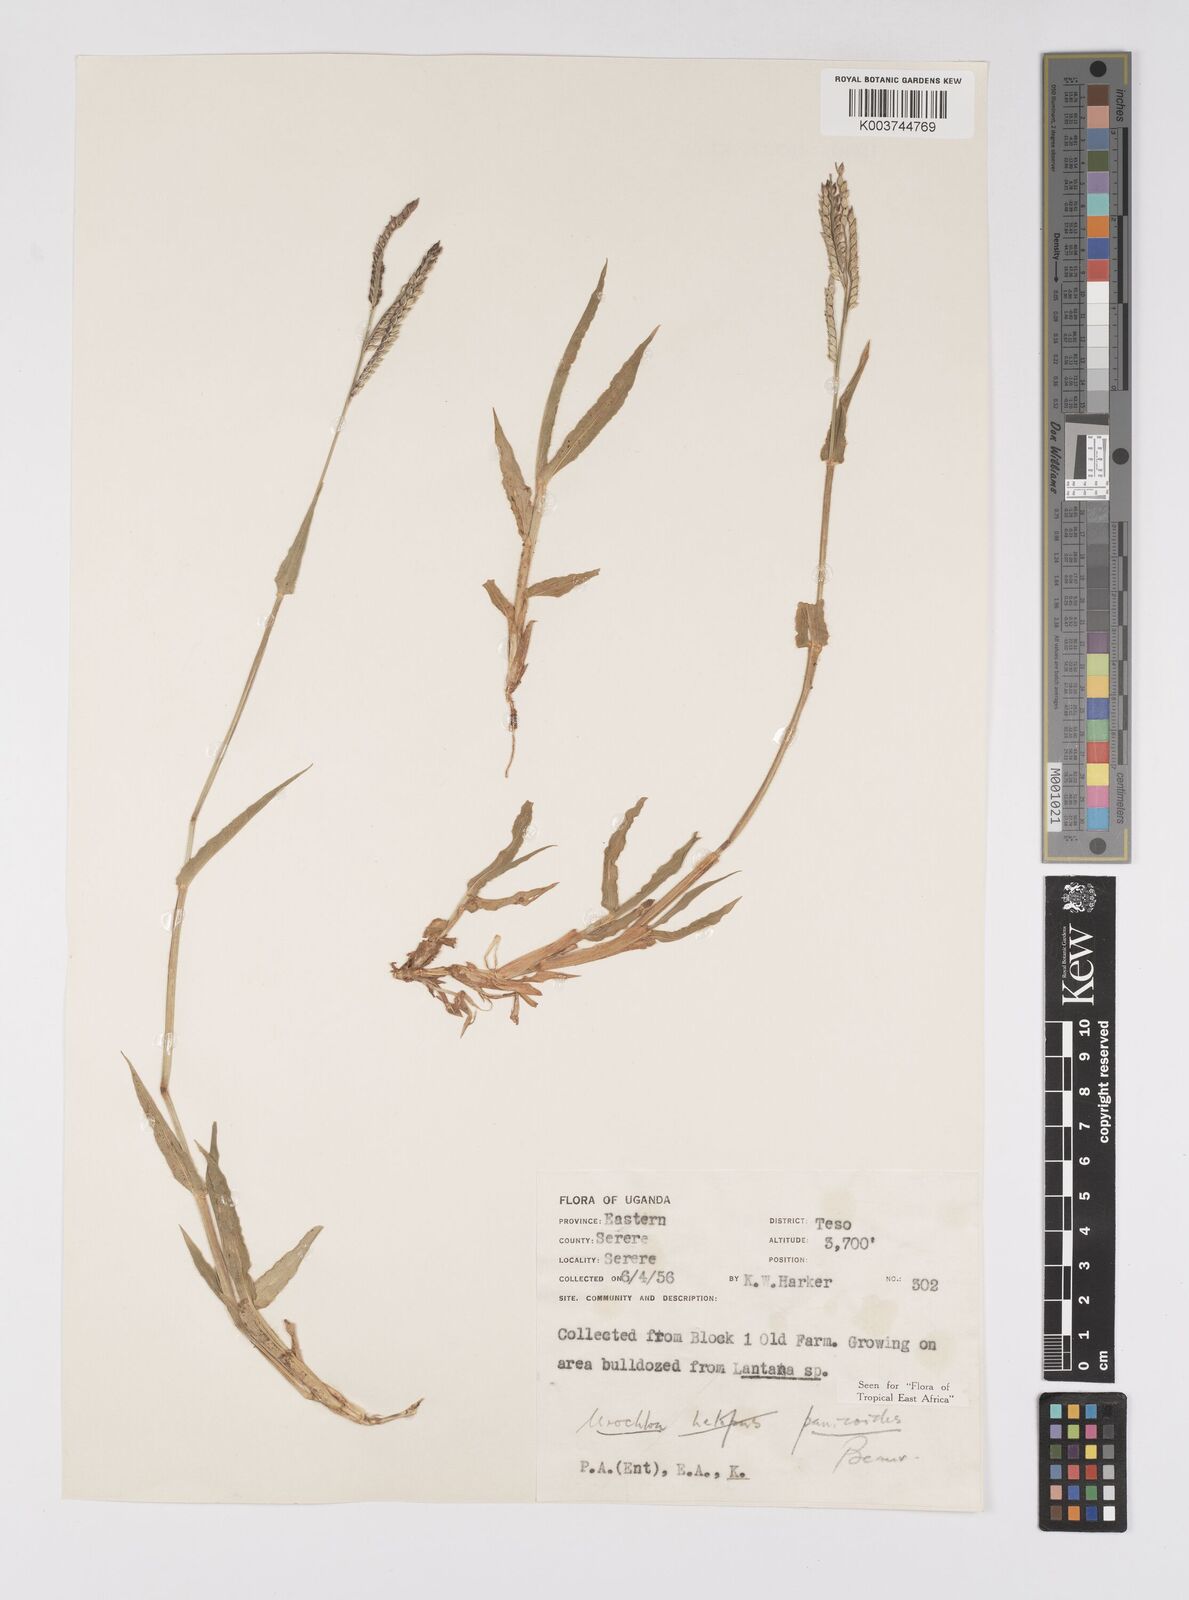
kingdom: Plantae
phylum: Tracheophyta
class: Liliopsida
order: Poales
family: Poaceae
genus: Urochloa
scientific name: Urochloa panicoides
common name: Sharp-flowered signal-grass
